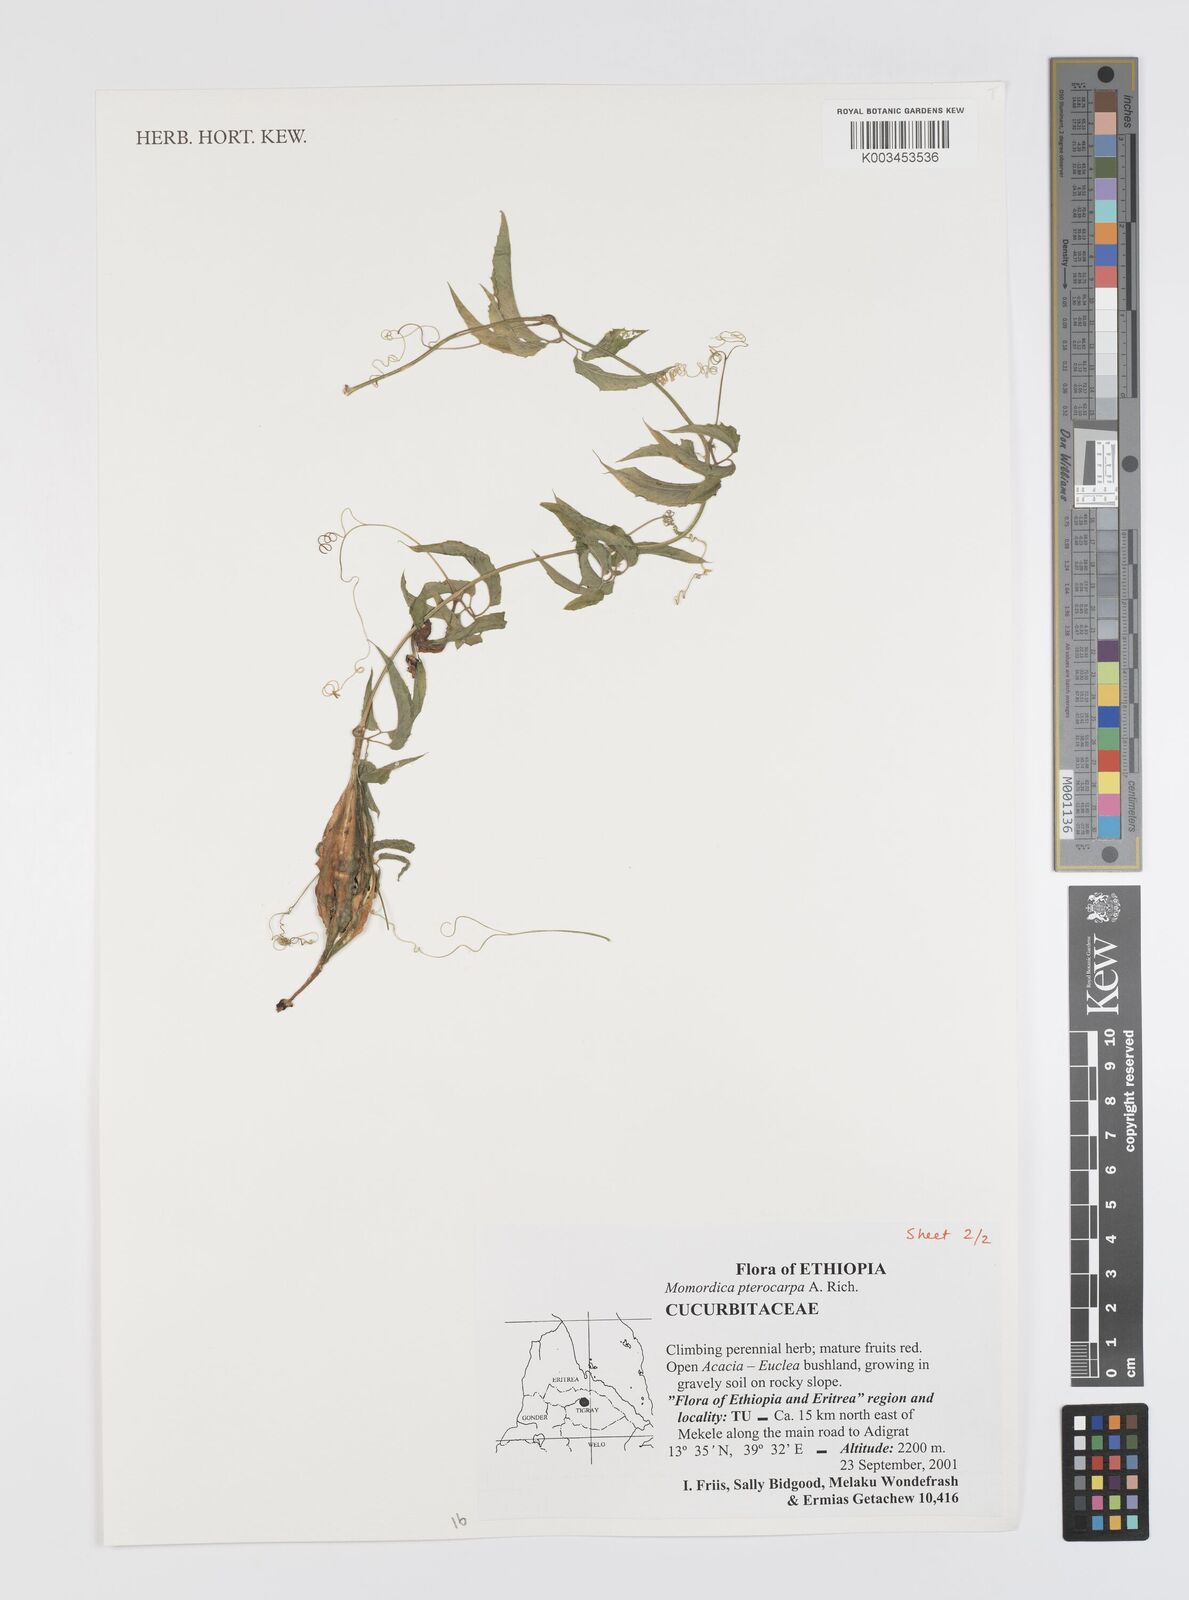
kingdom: Plantae
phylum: Tracheophyta
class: Magnoliopsida
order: Cucurbitales
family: Cucurbitaceae
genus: Momordica
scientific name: Momordica pterocarpa
